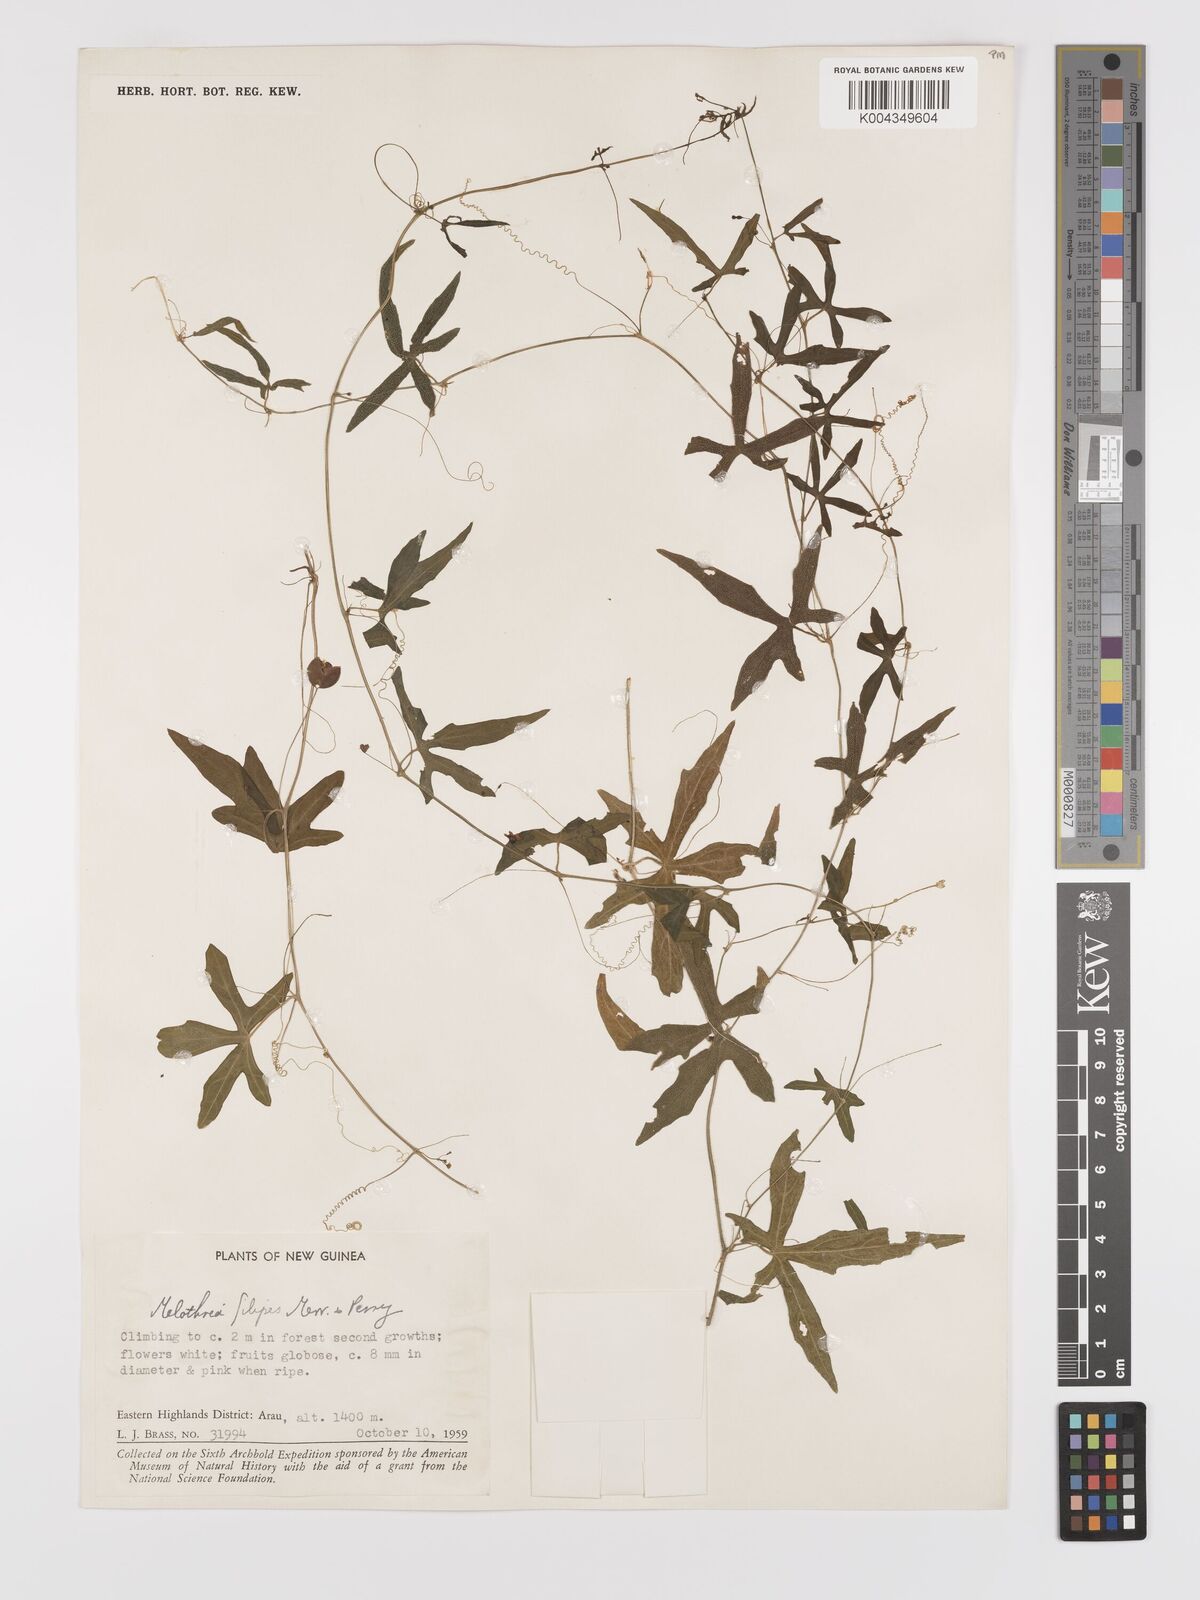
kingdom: Plantae
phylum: Tracheophyta
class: Magnoliopsida
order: Cucurbitales
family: Cucurbitaceae
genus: Zehneria
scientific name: Zehneria filipes
